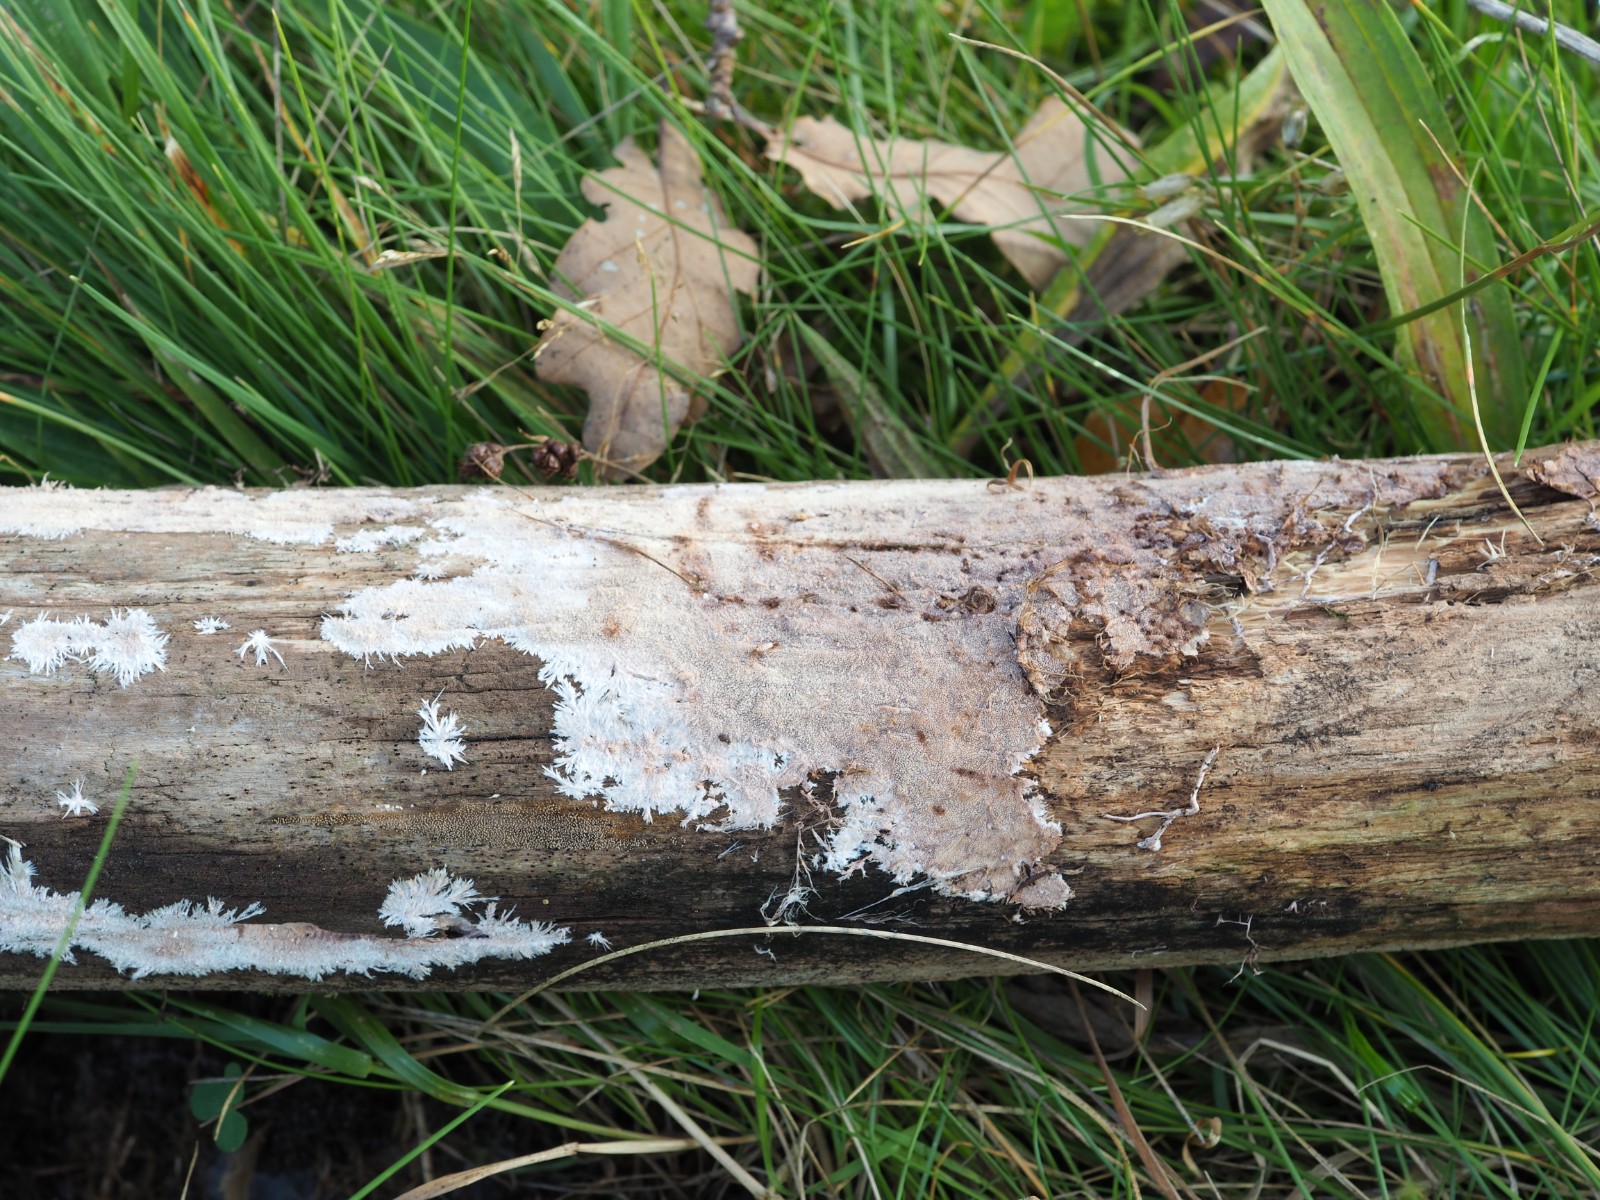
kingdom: Fungi
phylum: Basidiomycota
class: Agaricomycetes
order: Polyporales
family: Steccherinaceae
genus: Steccherinum
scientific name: Steccherinum fimbriatum
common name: trådet skønpig
